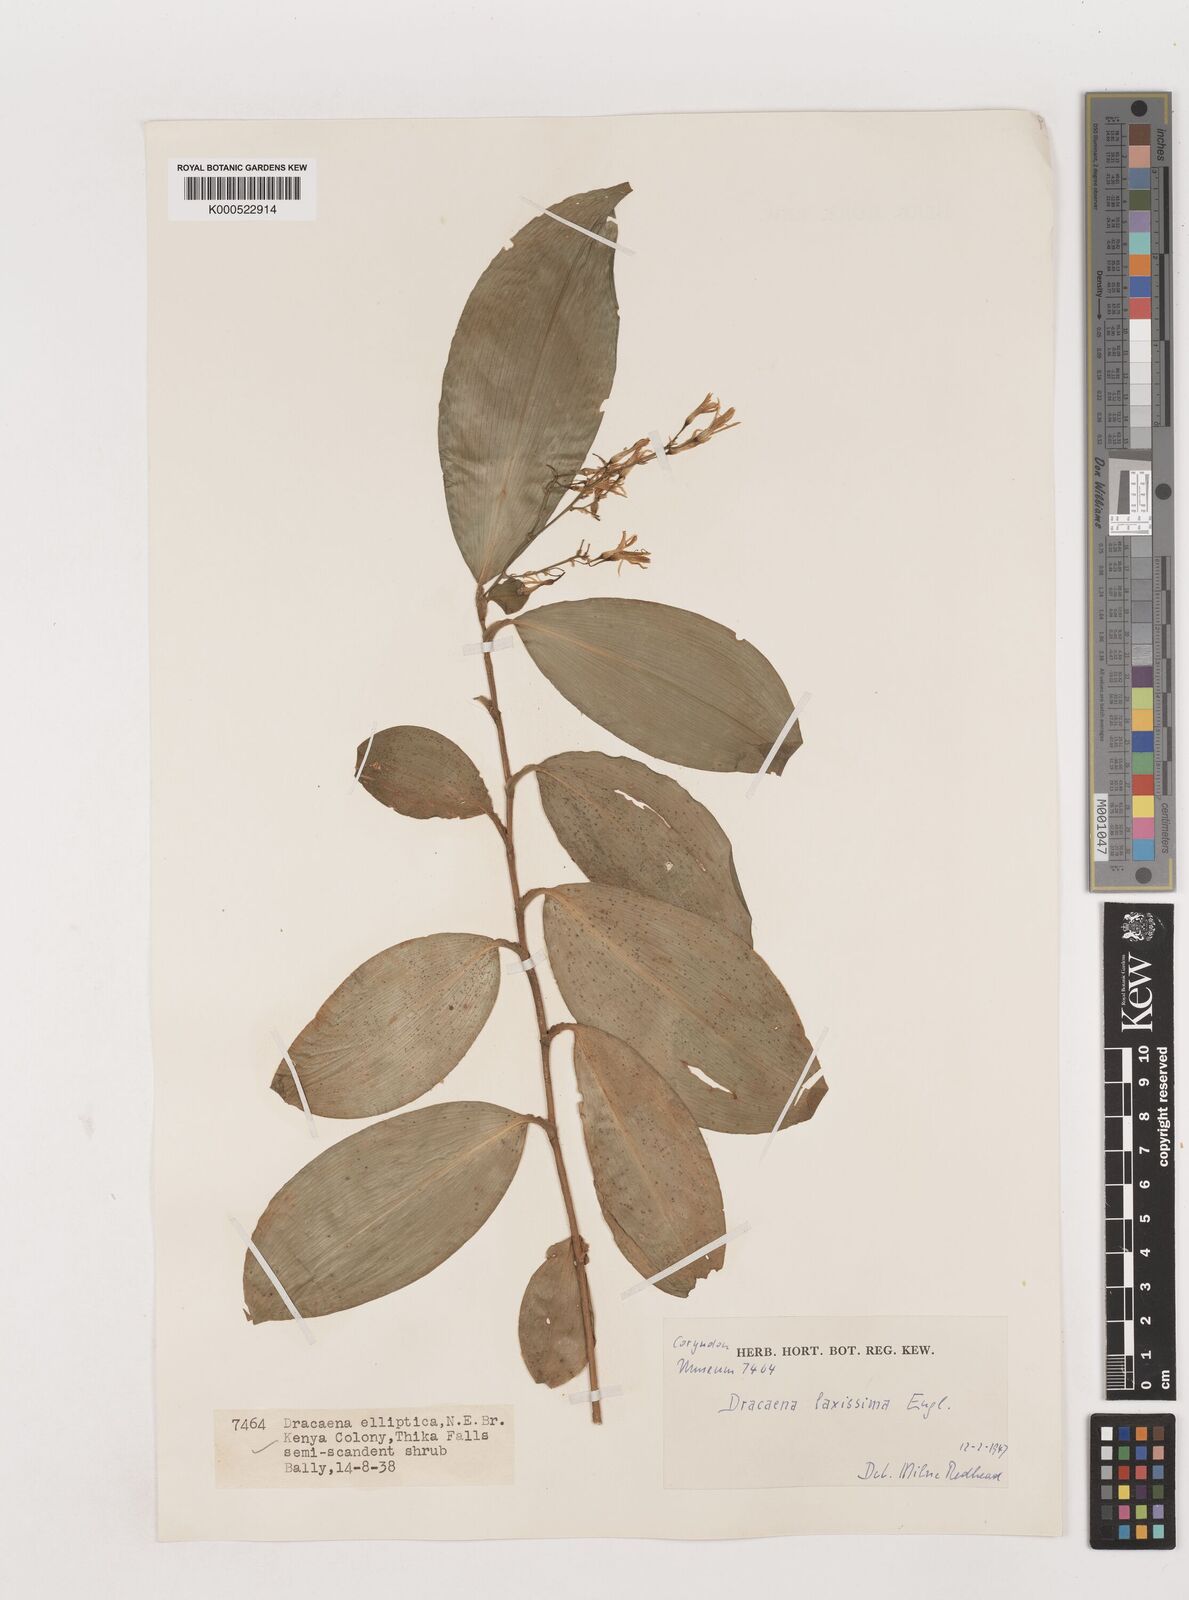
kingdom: Plantae
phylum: Tracheophyta
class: Liliopsida
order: Asparagales
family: Asparagaceae
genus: Dracaena
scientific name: Dracaena laxissima
